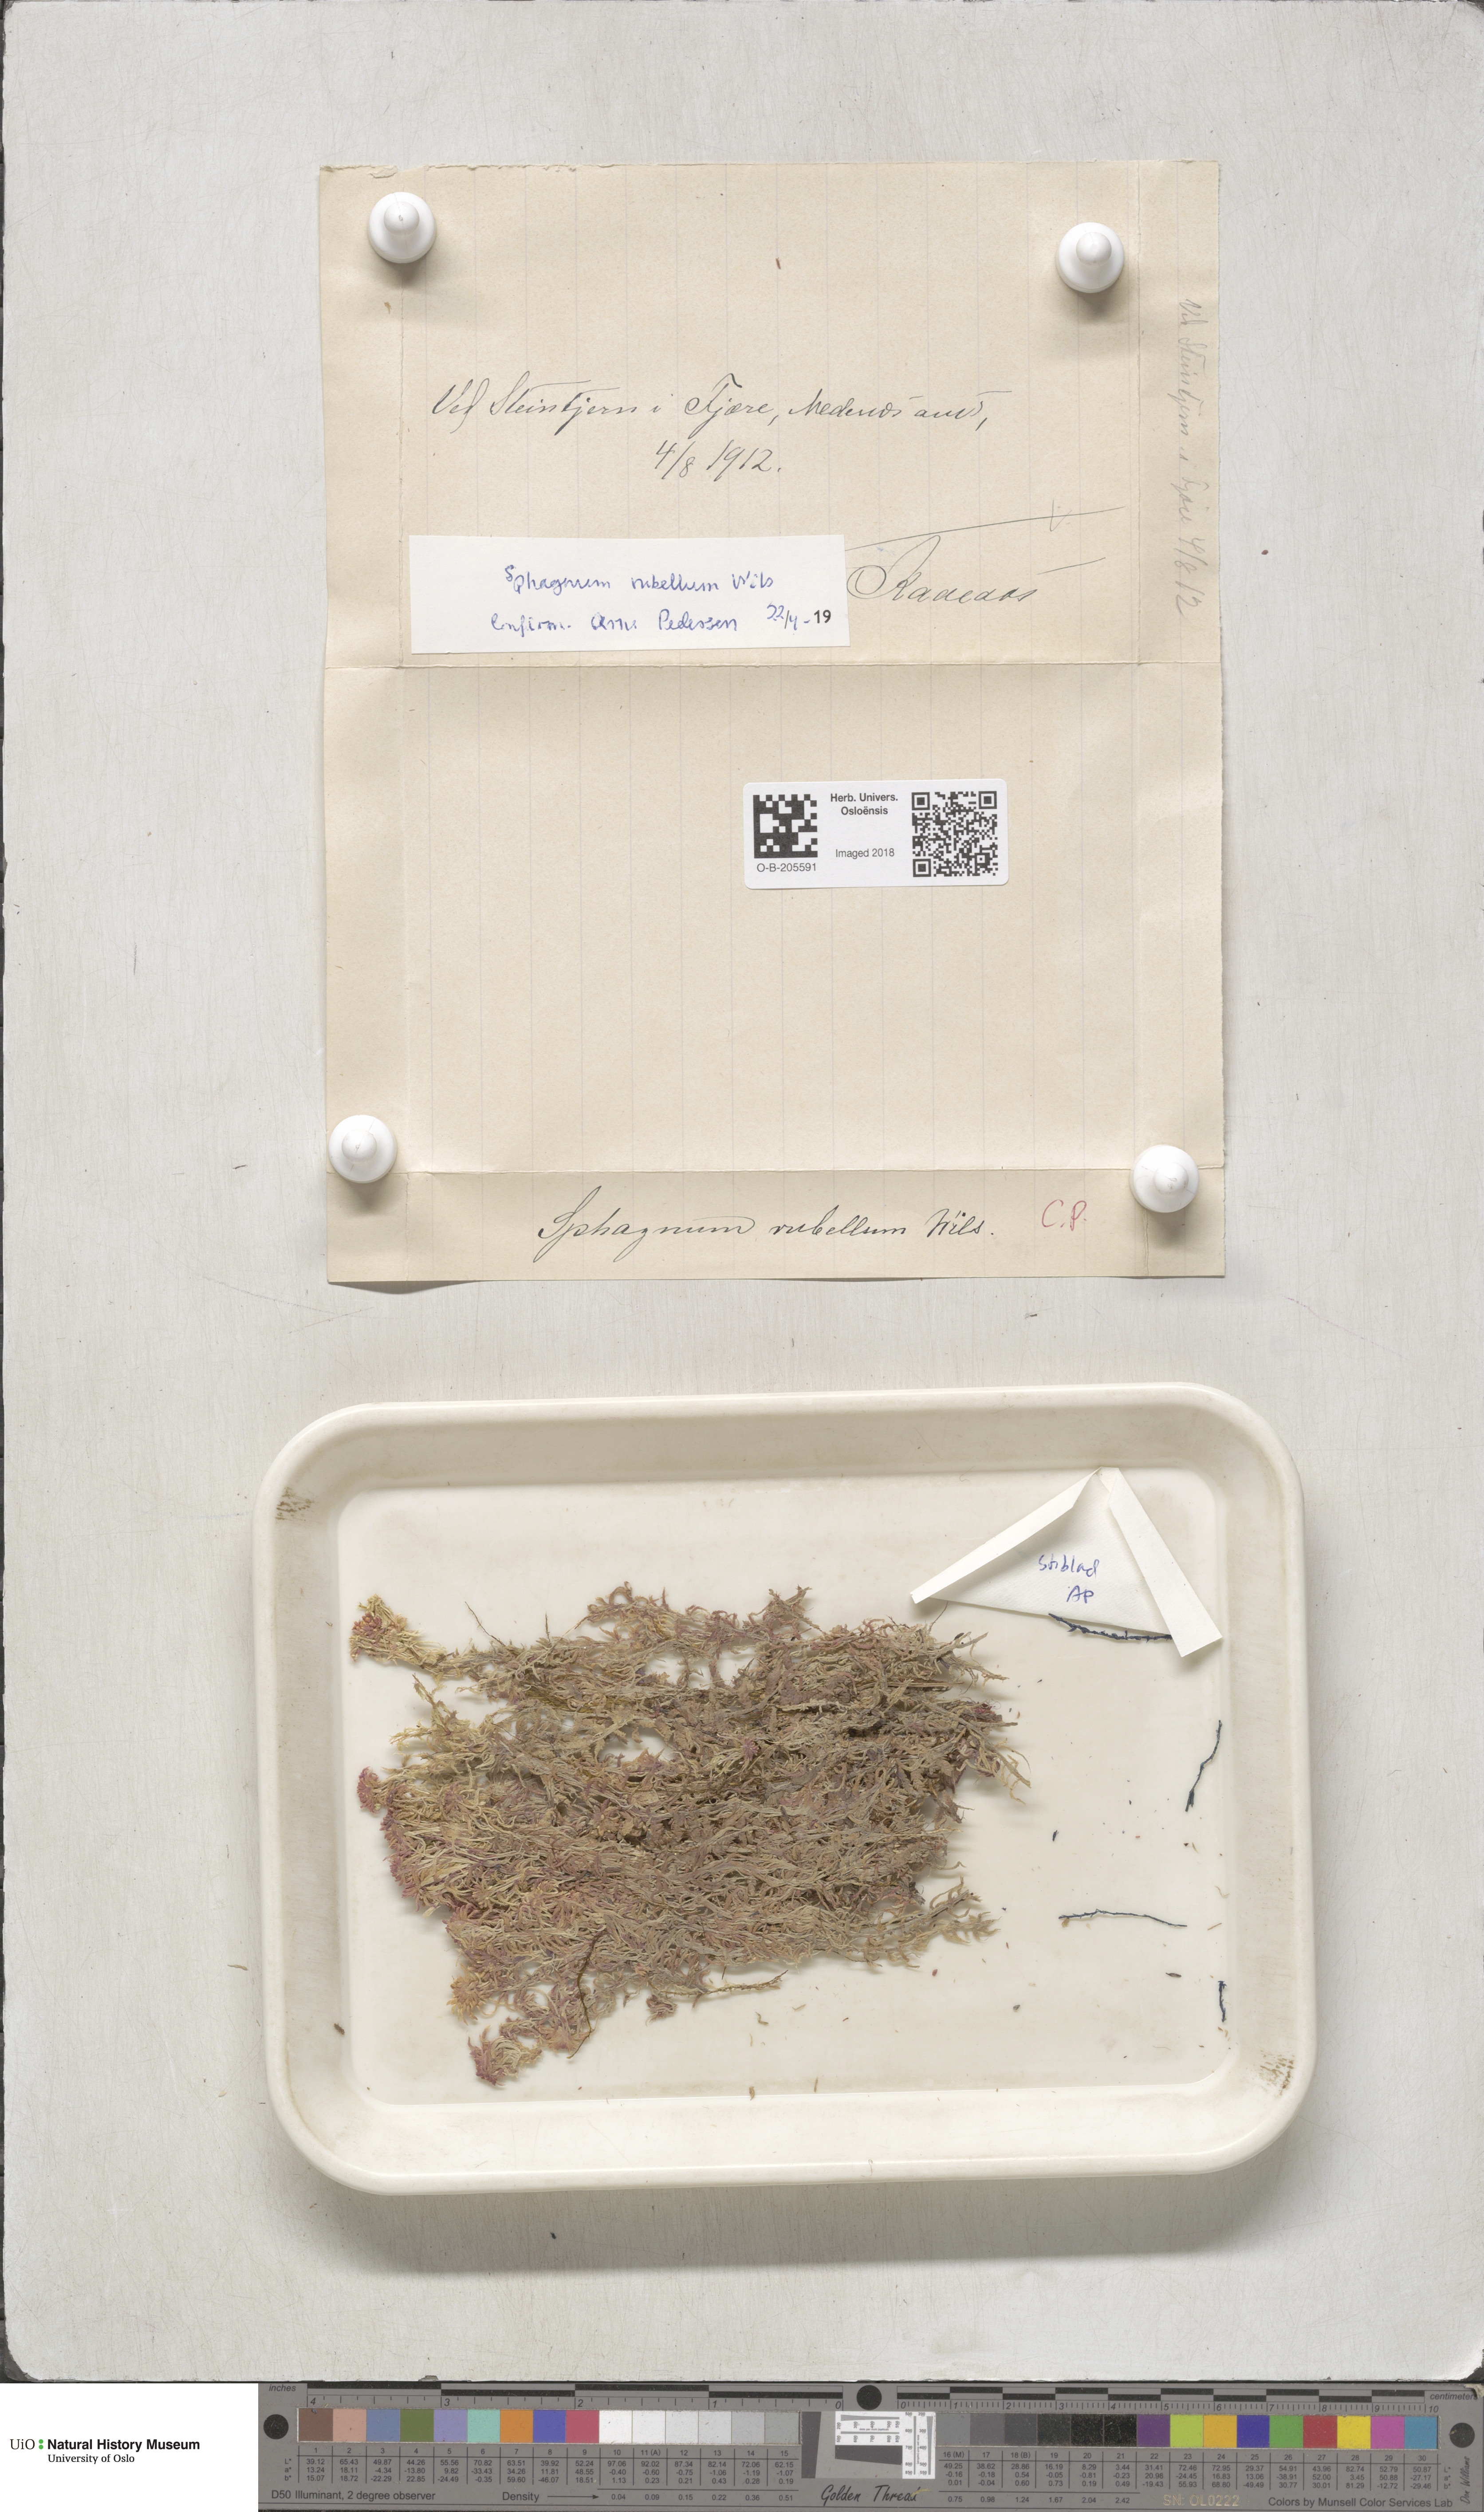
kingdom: Plantae
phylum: Bryophyta
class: Sphagnopsida
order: Sphagnales
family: Sphagnaceae
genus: Sphagnum
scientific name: Sphagnum rubellum
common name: Red peat moss
